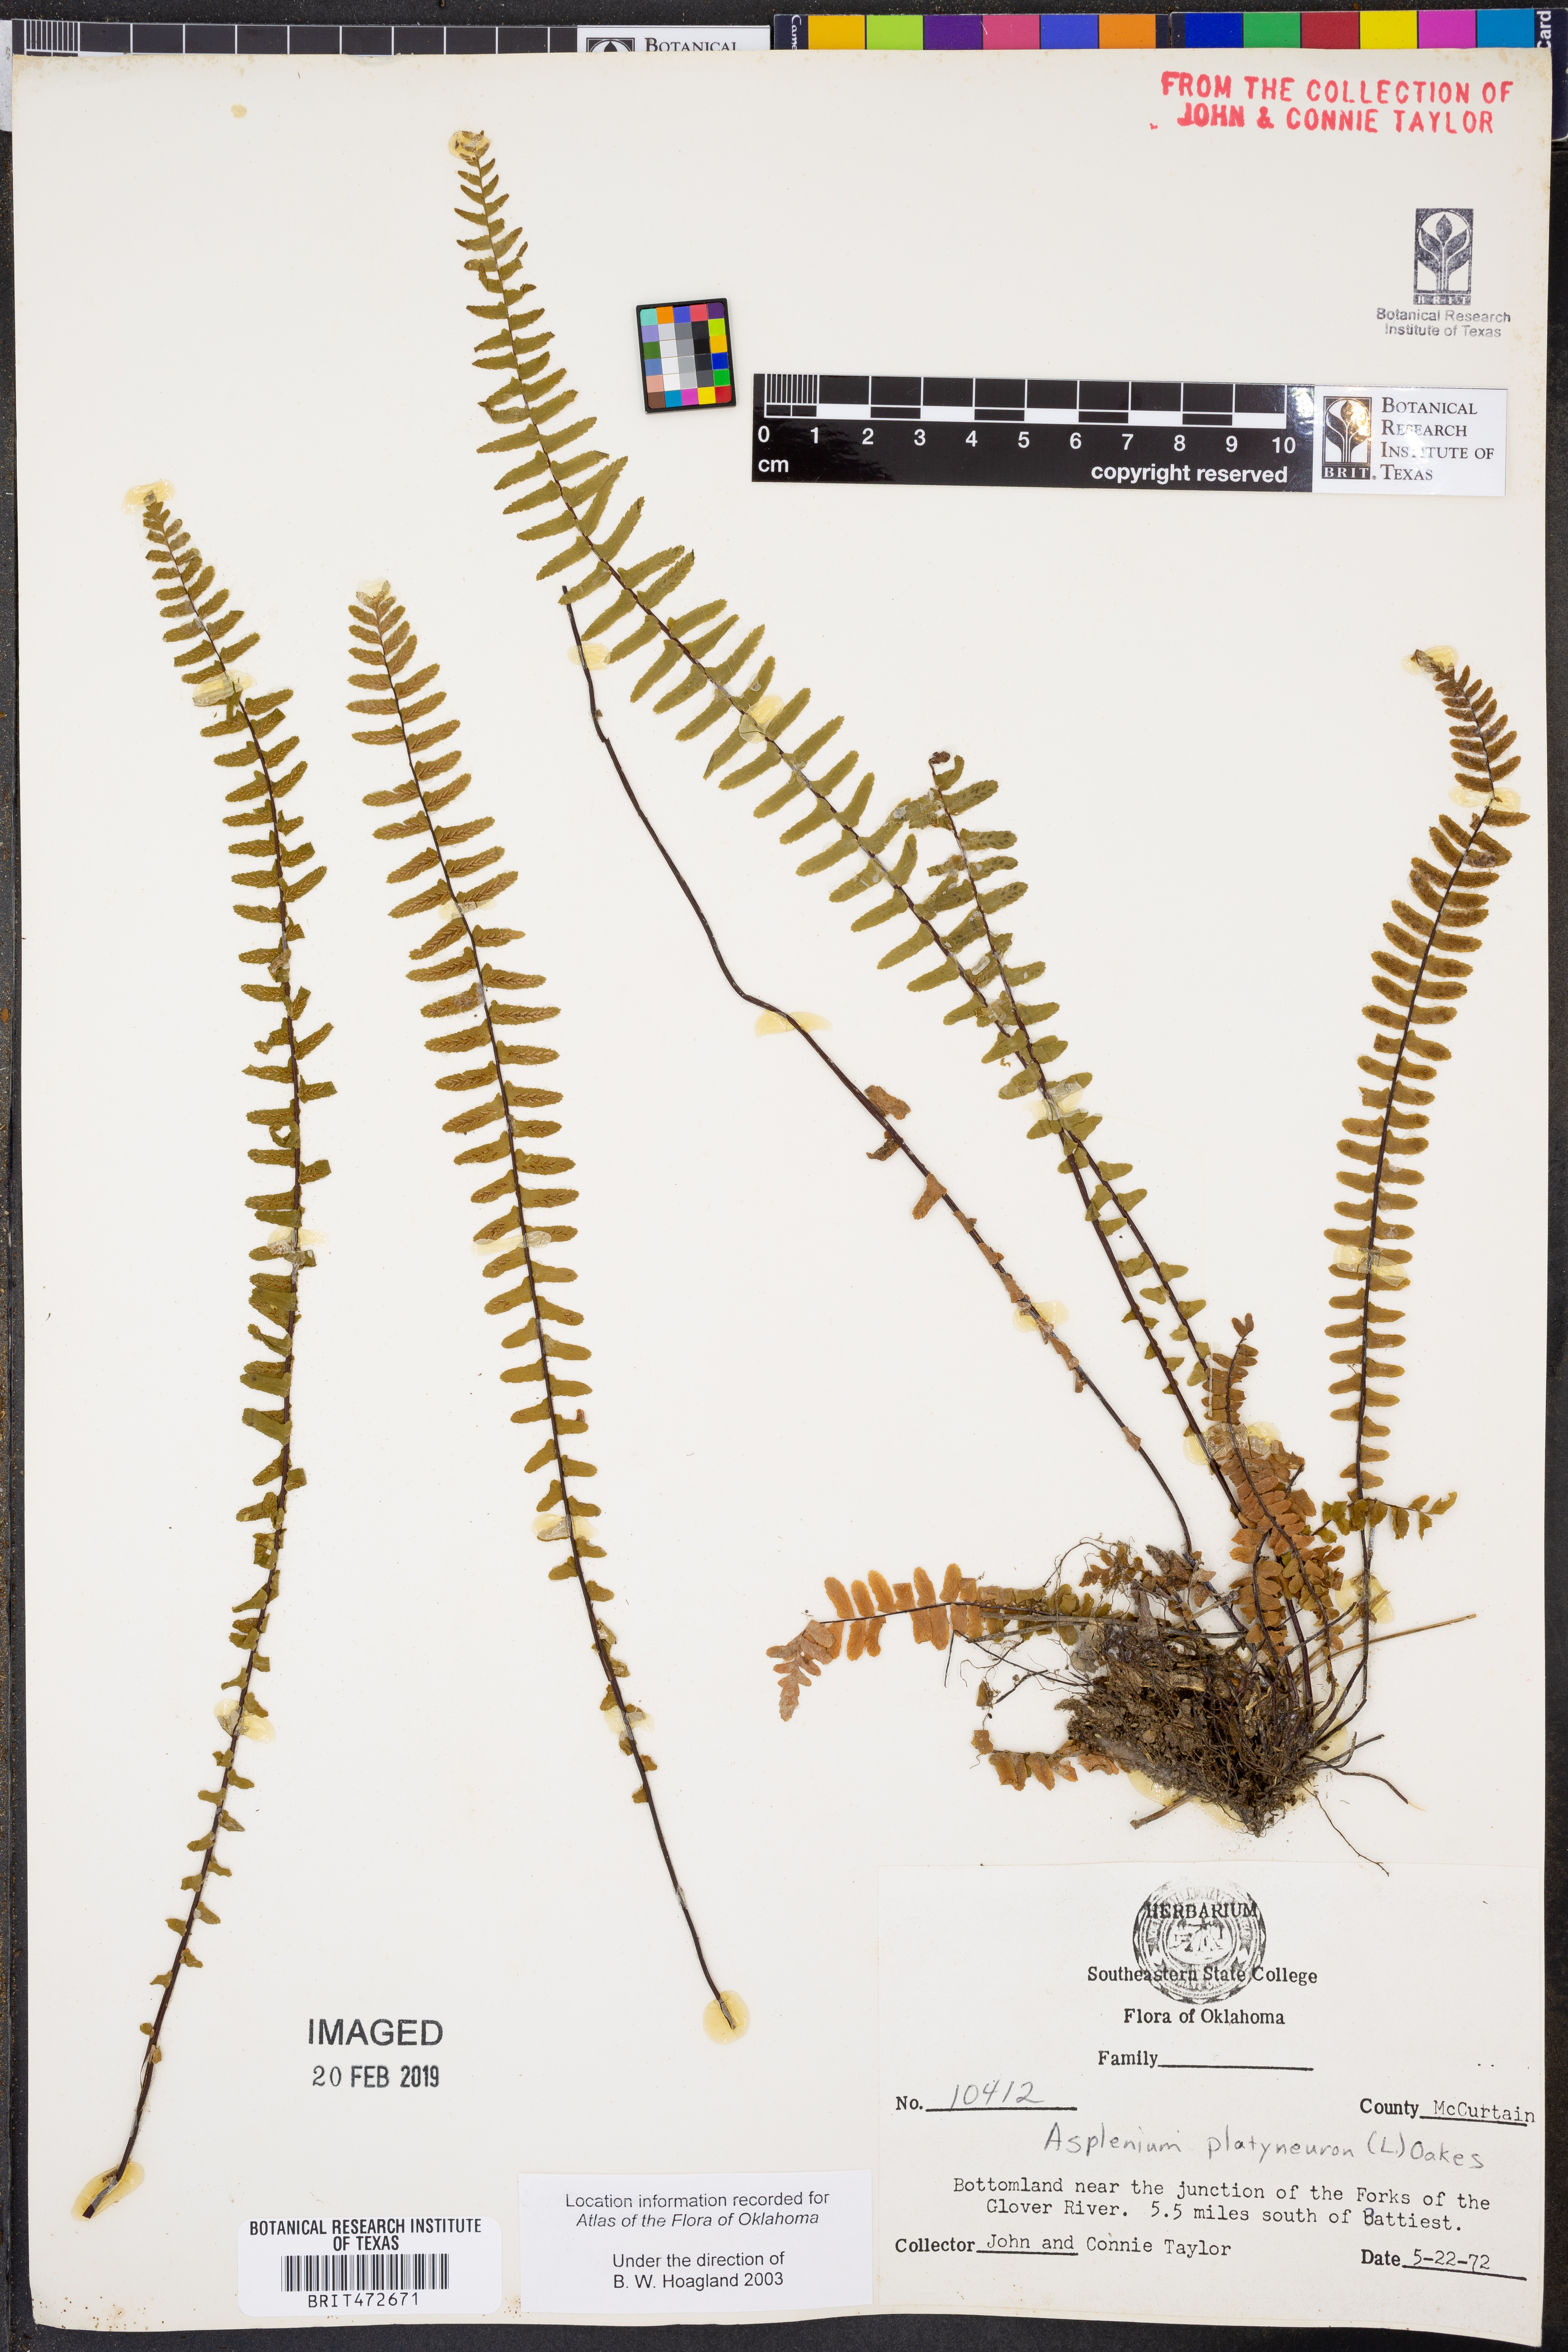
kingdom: Plantae
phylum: Tracheophyta
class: Polypodiopsida
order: Polypodiales
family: Aspleniaceae
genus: Asplenium
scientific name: Asplenium platyneuron
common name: Ebony spleenwort
